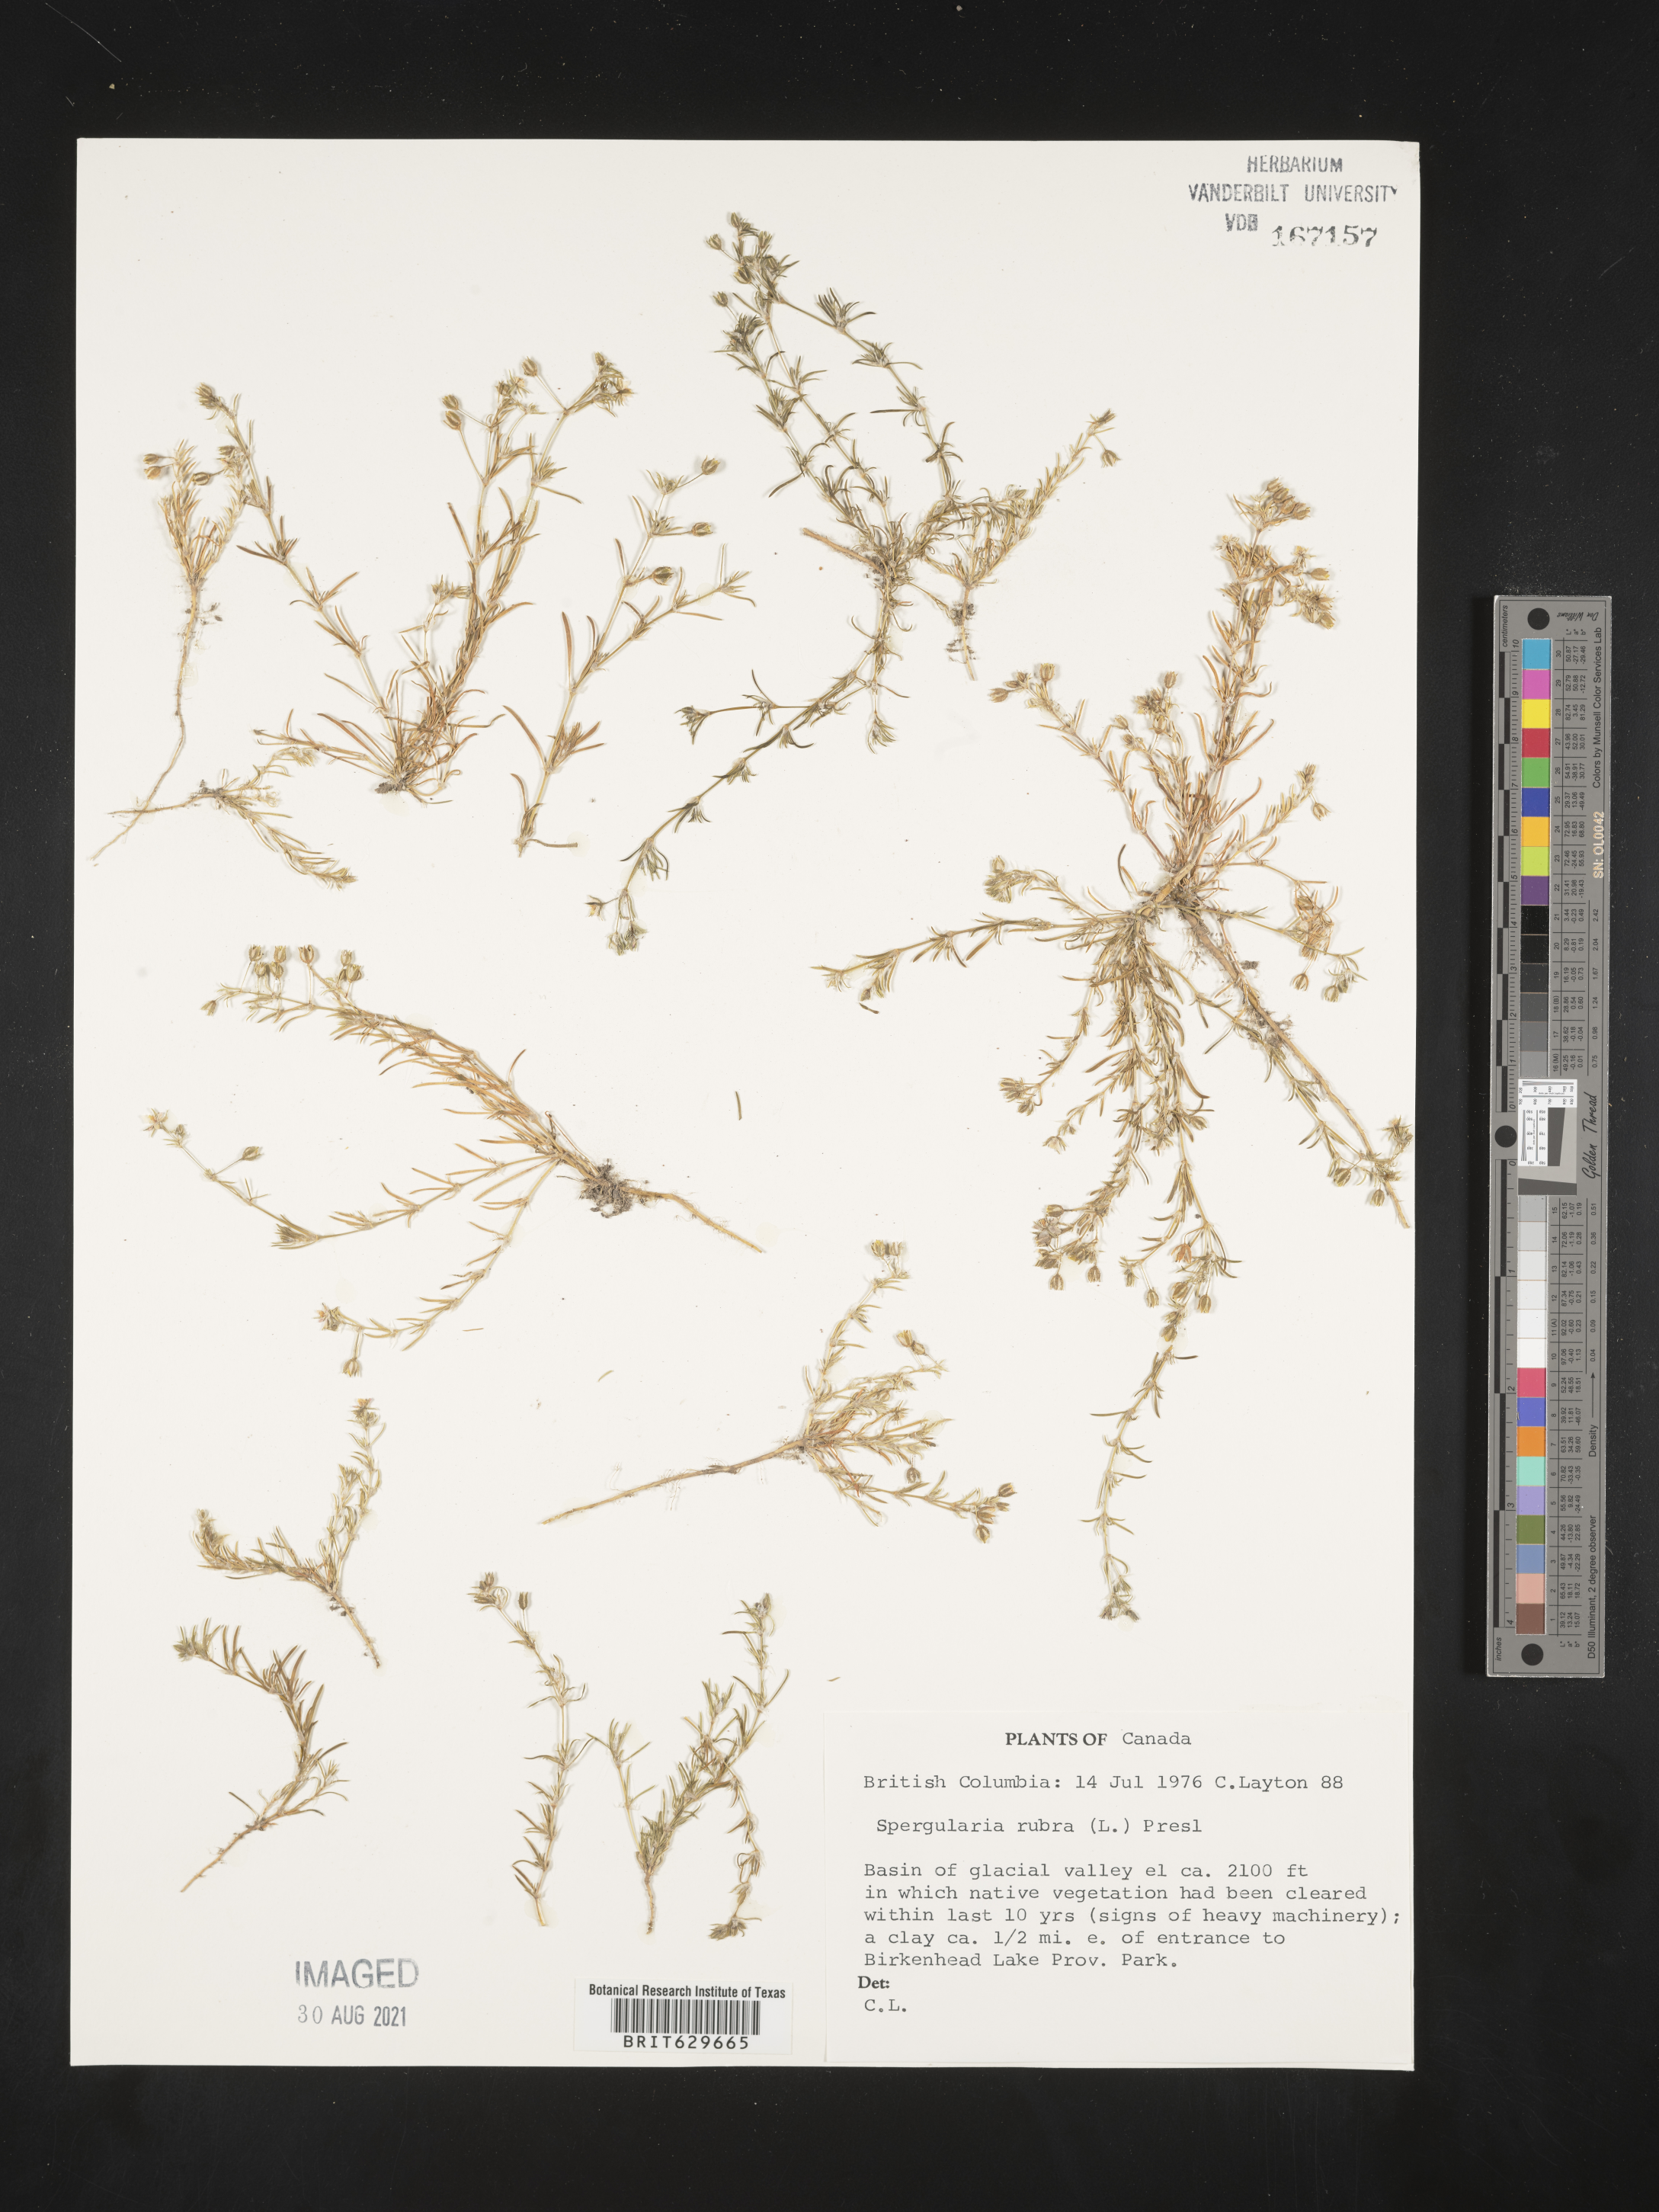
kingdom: Plantae
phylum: Tracheophyta
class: Magnoliopsida
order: Caryophyllales
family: Caryophyllaceae
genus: Spergularia
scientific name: Spergularia rubra
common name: Red sand-spurrey
